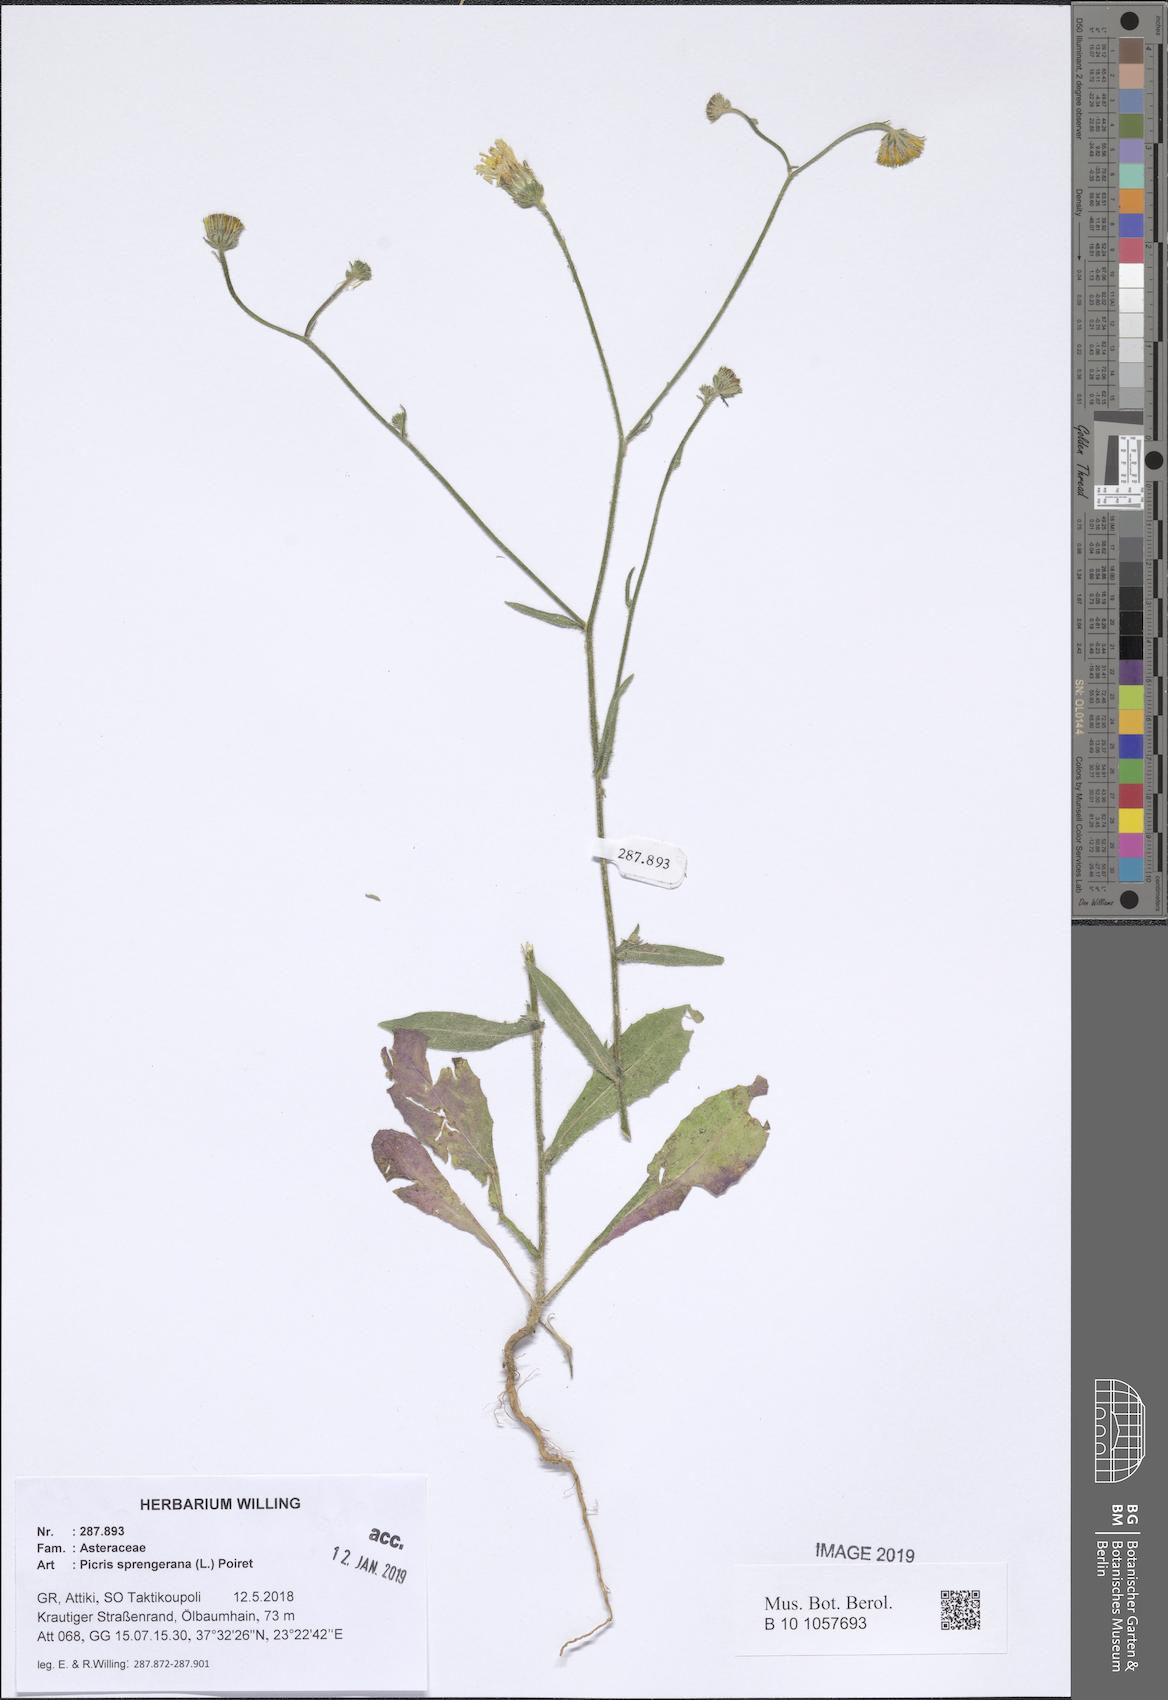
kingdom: Plantae
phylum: Tracheophyta
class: Magnoliopsida
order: Asterales
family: Asteraceae
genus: Picris
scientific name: Picris rhagadioloides
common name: Oxtongue
